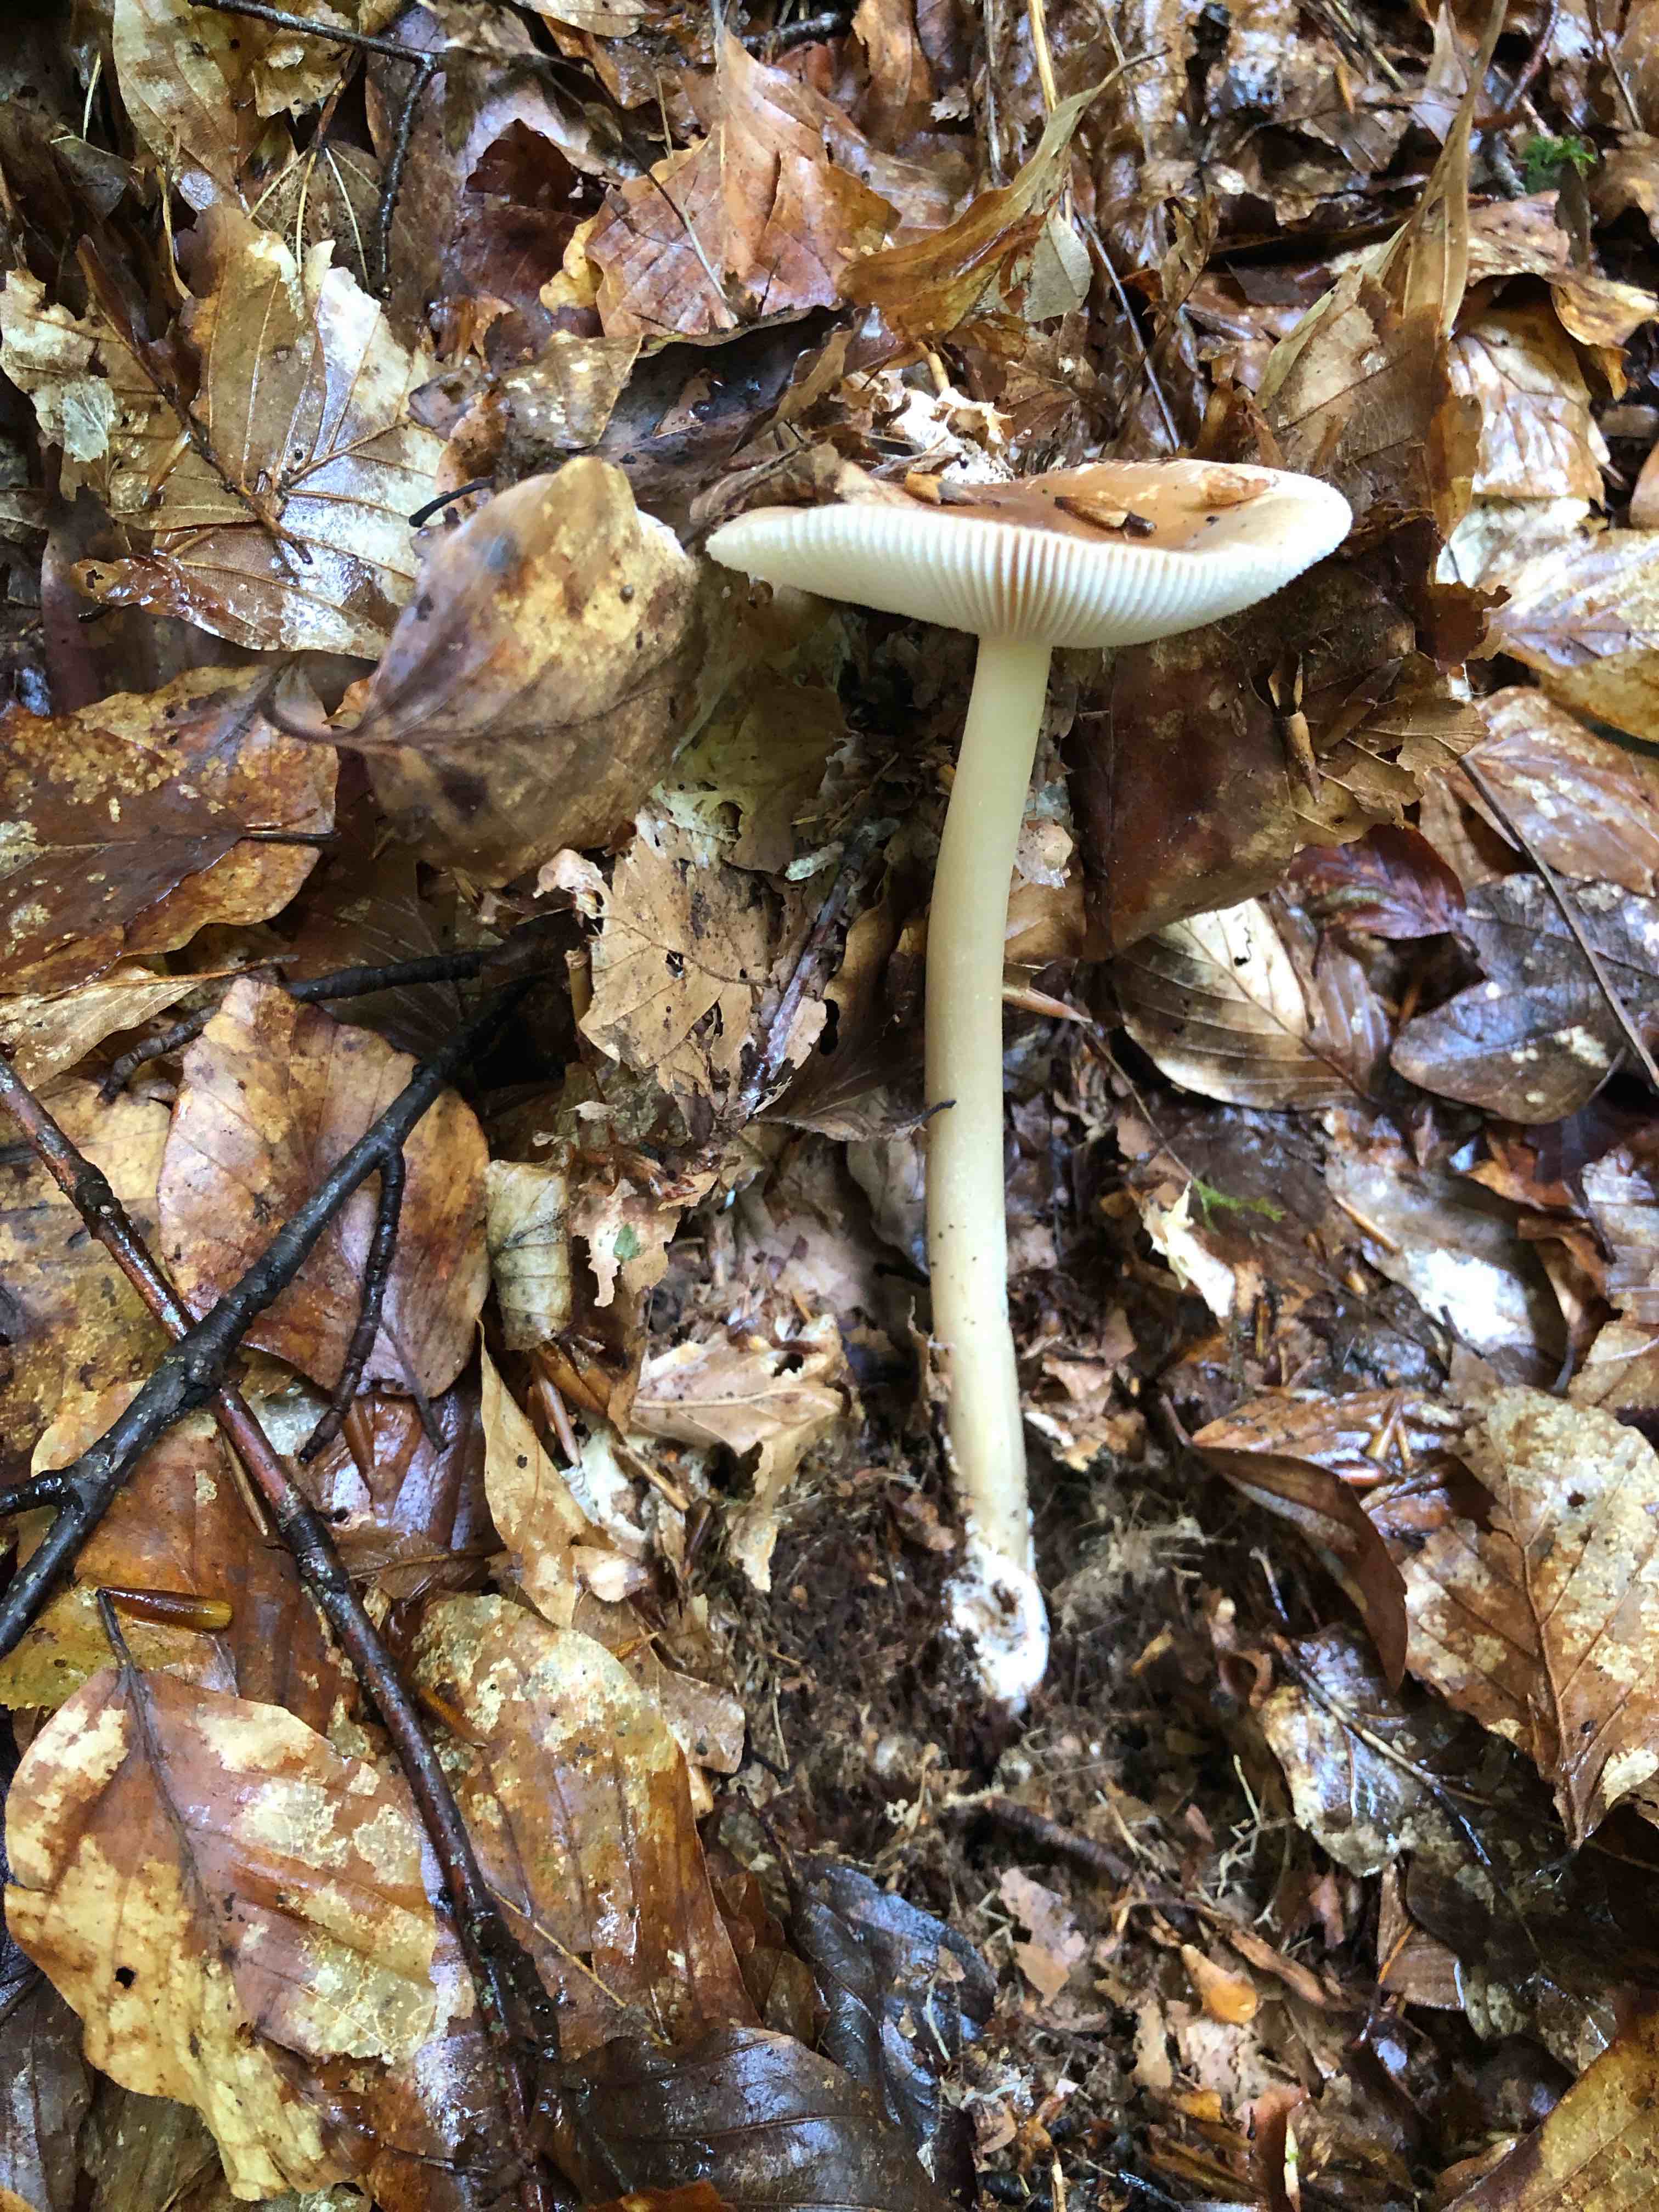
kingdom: Fungi
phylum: Basidiomycota
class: Agaricomycetes
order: Agaricales
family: Amanitaceae
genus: Amanita
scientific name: Amanita fulva
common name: brun kam-fluesvamp
